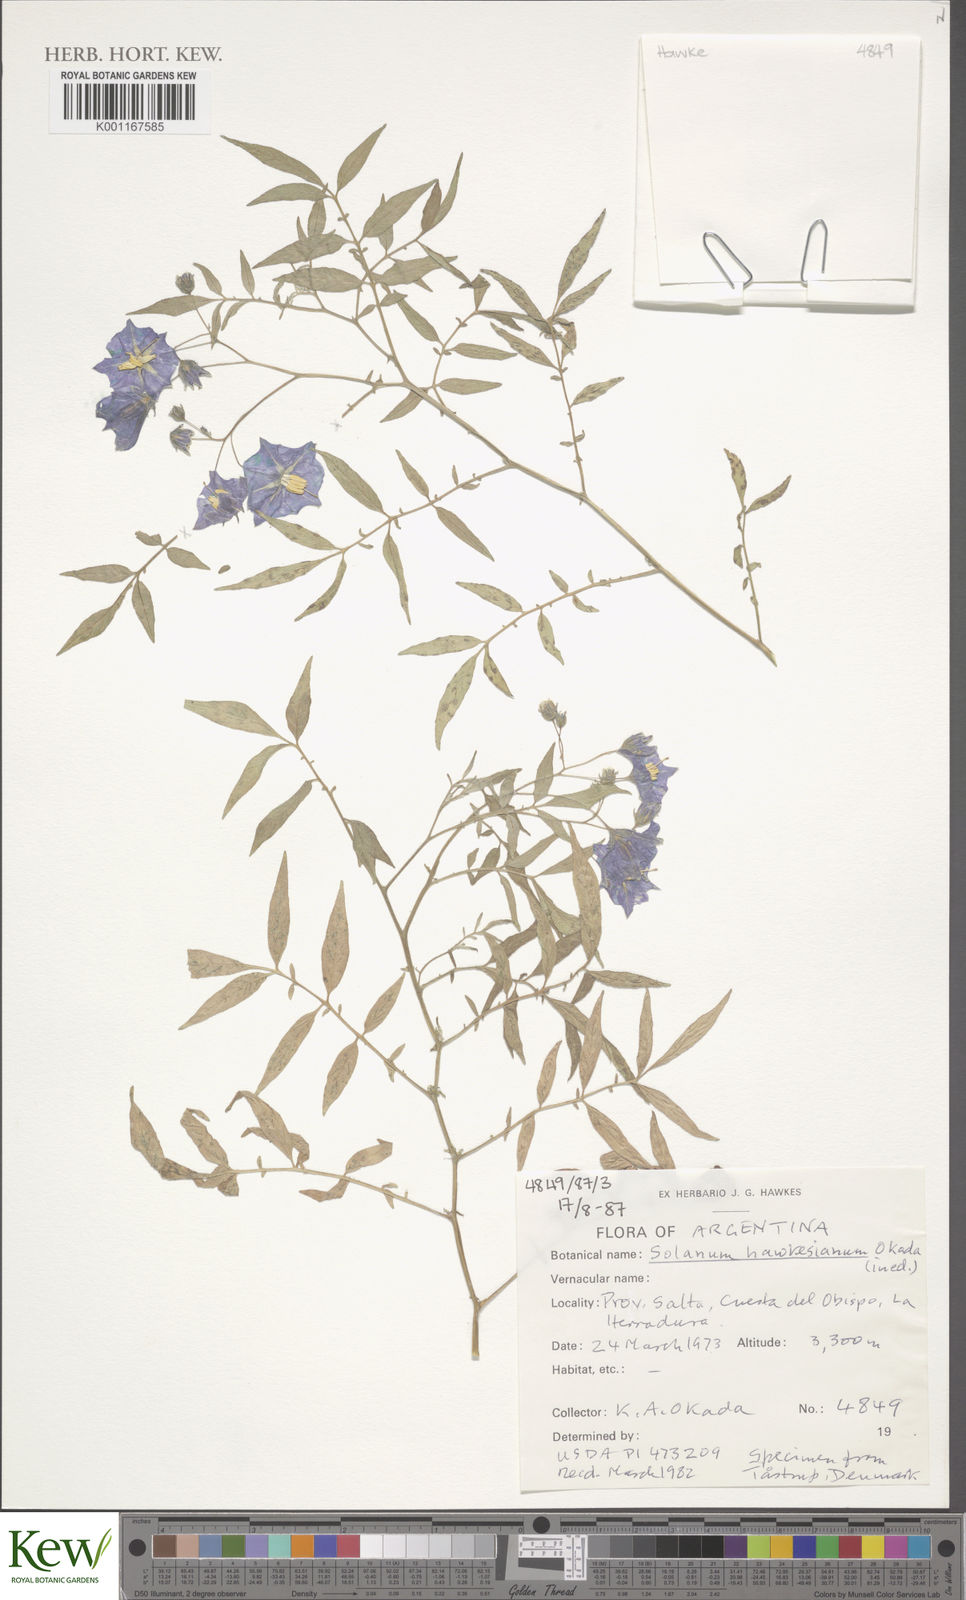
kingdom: Plantae
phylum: Tracheophyta
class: Magnoliopsida
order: Solanales
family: Solanaceae
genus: Solanum
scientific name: Solanum
